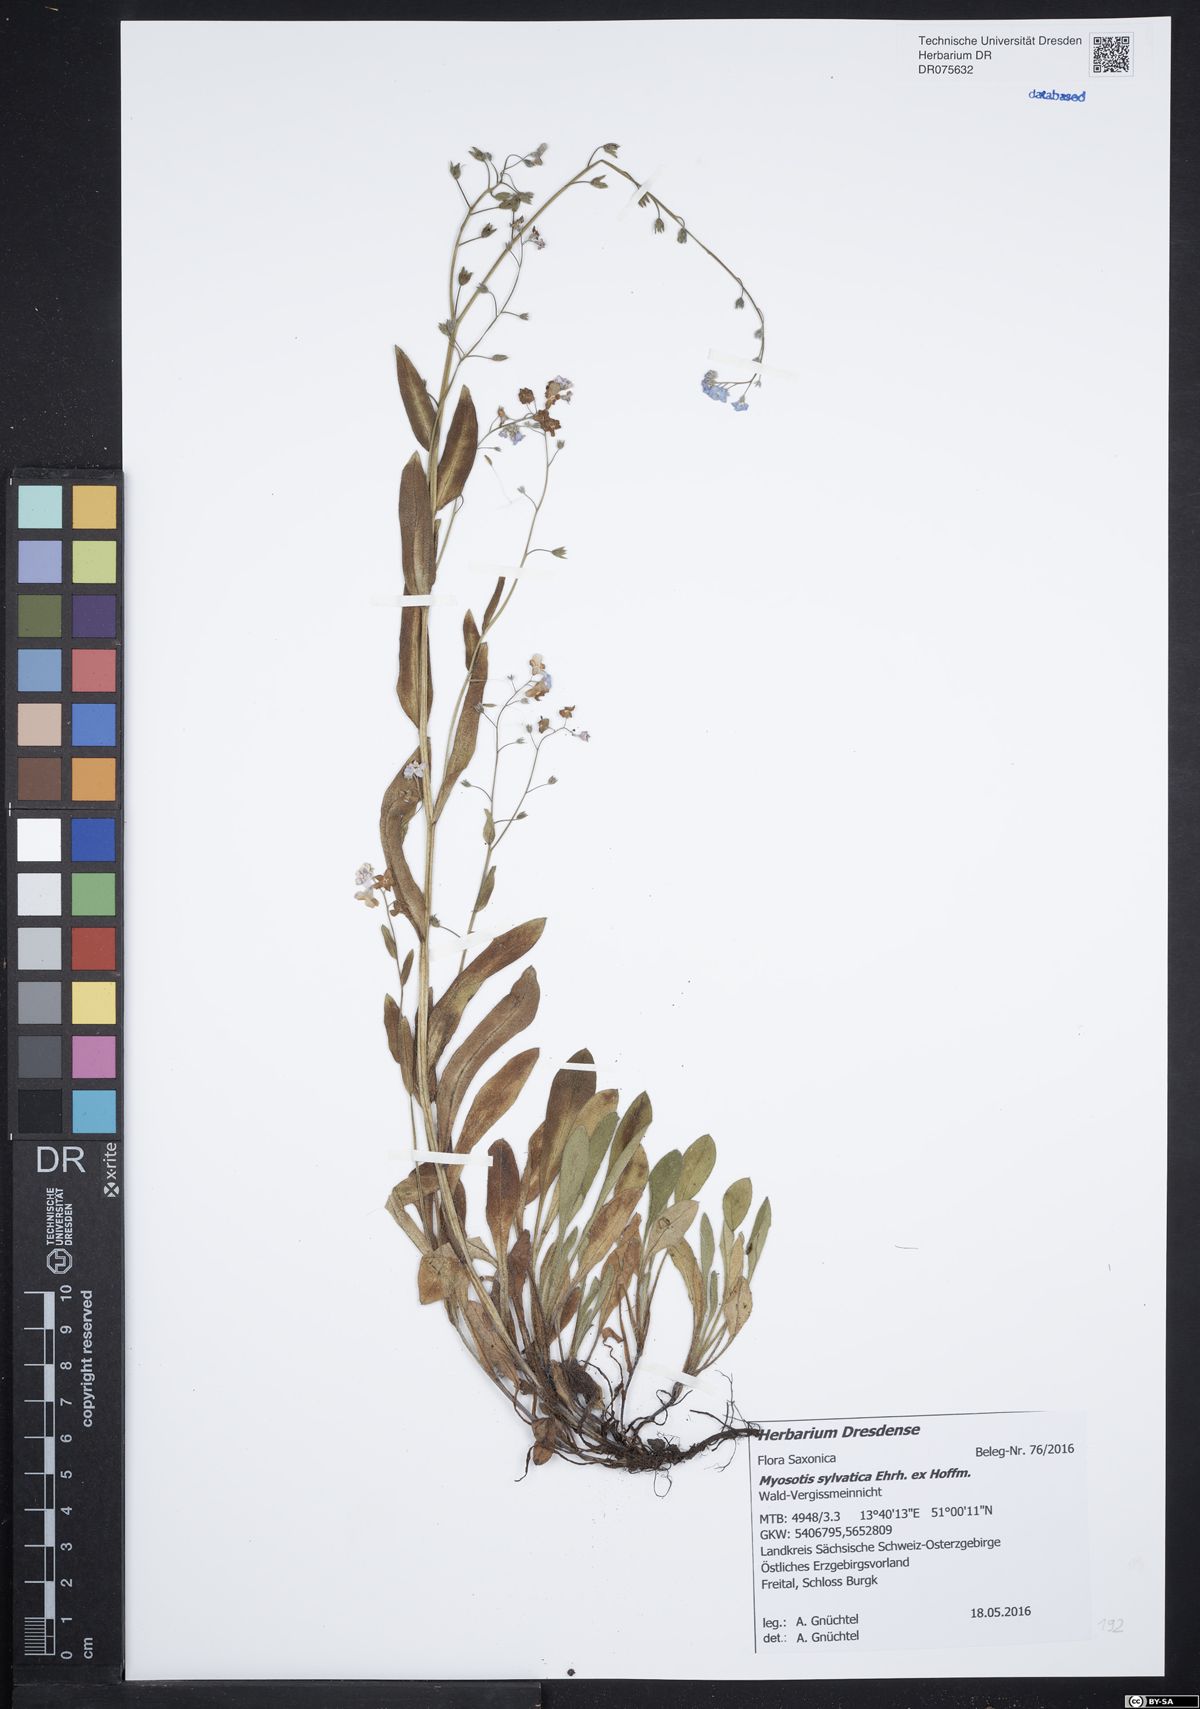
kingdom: Plantae
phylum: Tracheophyta
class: Magnoliopsida
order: Boraginales
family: Boraginaceae
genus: Myosotis
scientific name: Myosotis sylvatica
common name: Wood forget-me-not
